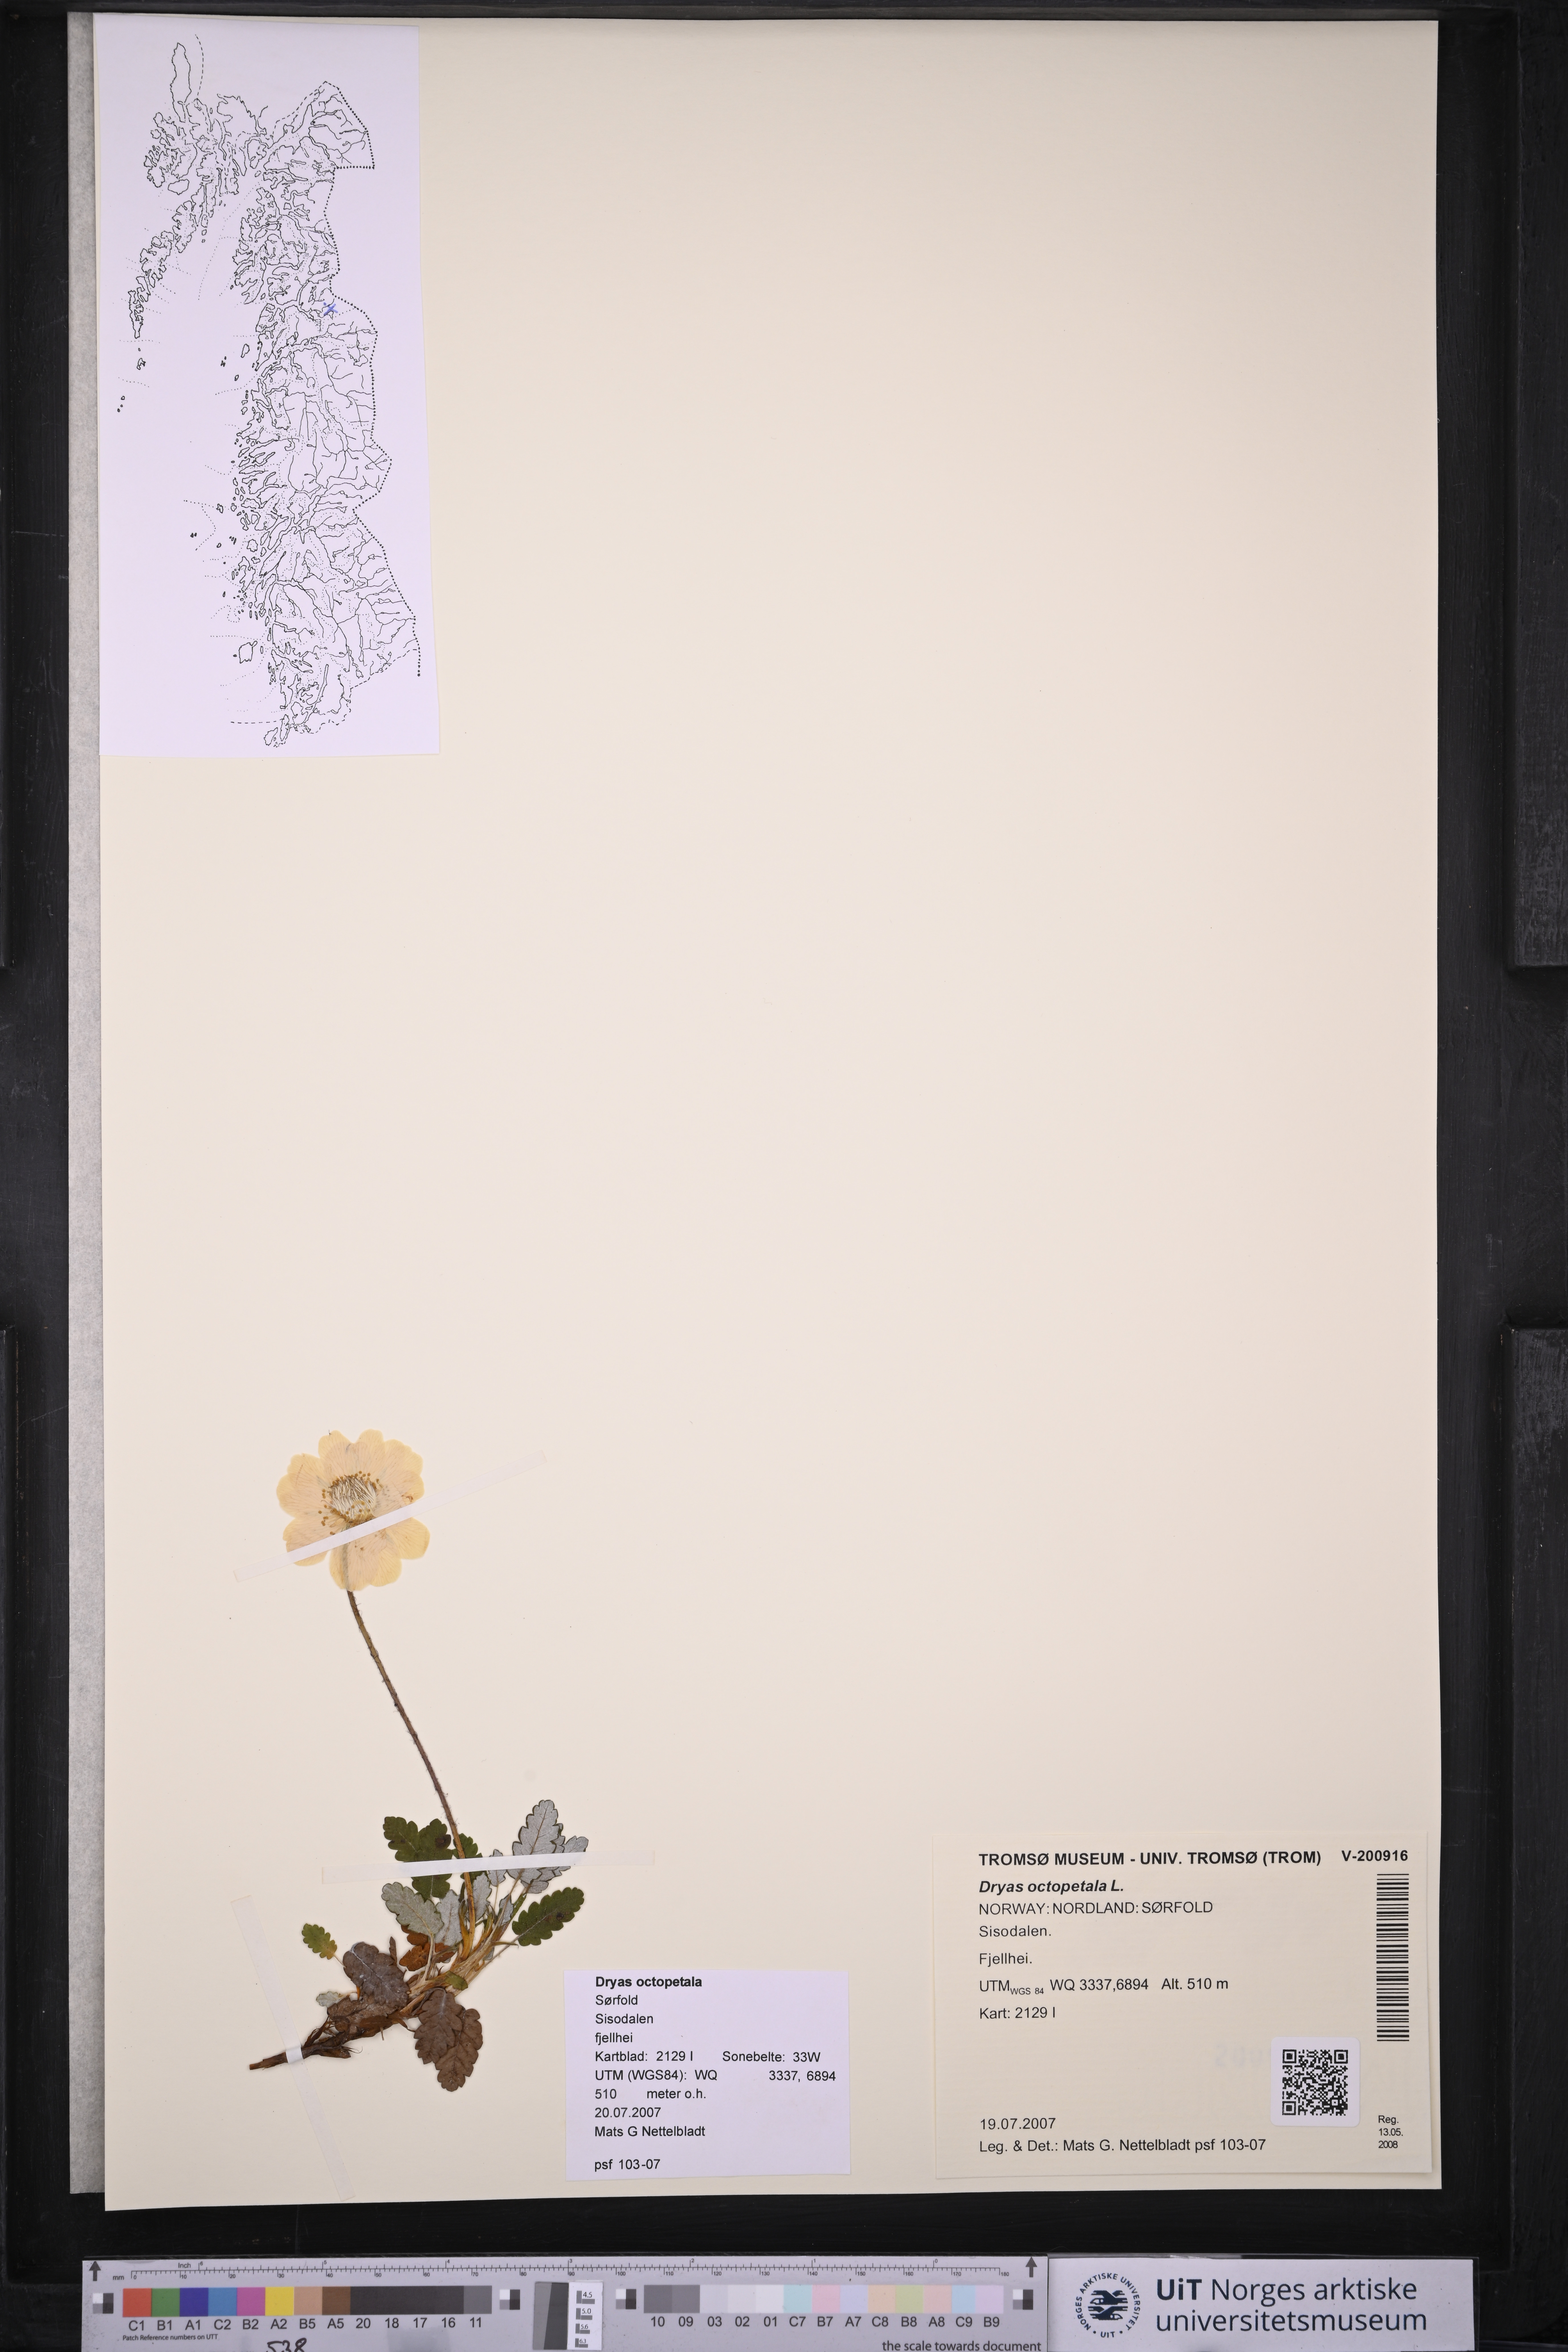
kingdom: Plantae
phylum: Tracheophyta
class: Magnoliopsida
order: Rosales
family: Rosaceae
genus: Dryas
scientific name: Dryas octopetala
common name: Eight-petal mountain-avens
